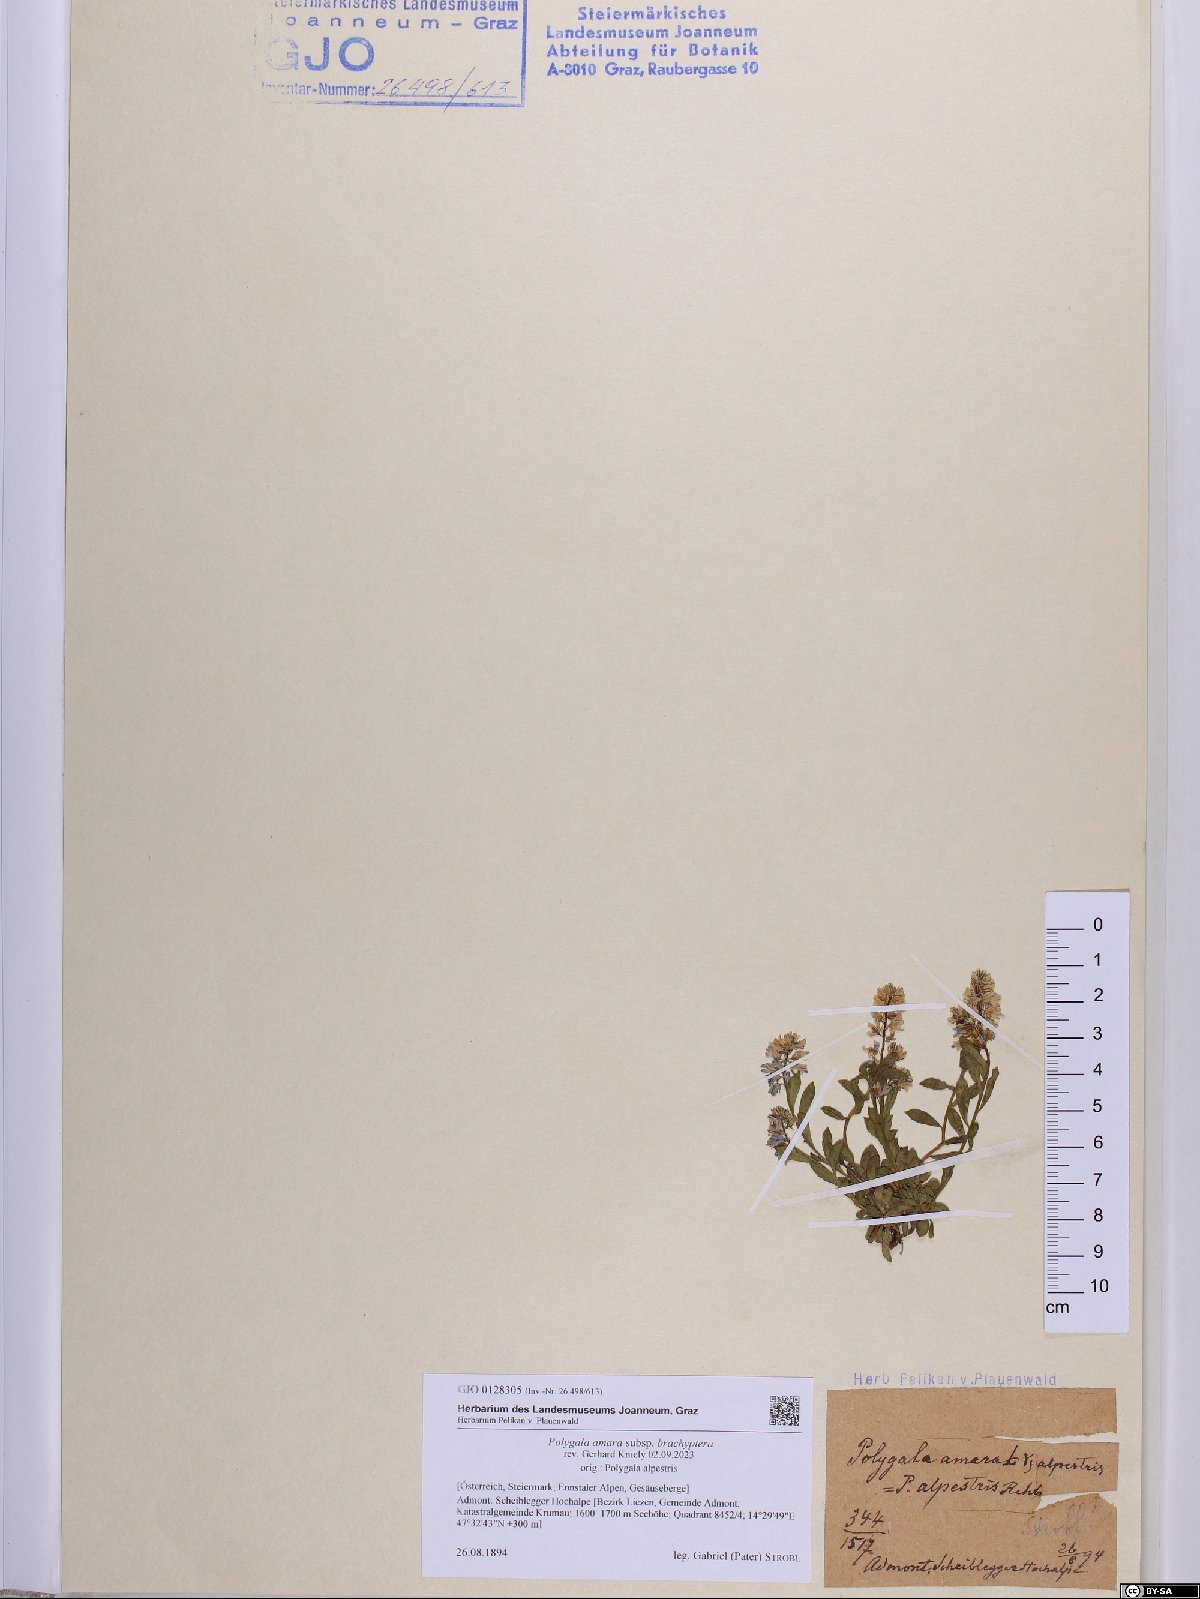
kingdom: Plantae
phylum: Tracheophyta
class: Magnoliopsida
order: Fabales
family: Polygalaceae
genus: Polygala
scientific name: Polygala amara
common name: Milkwort
